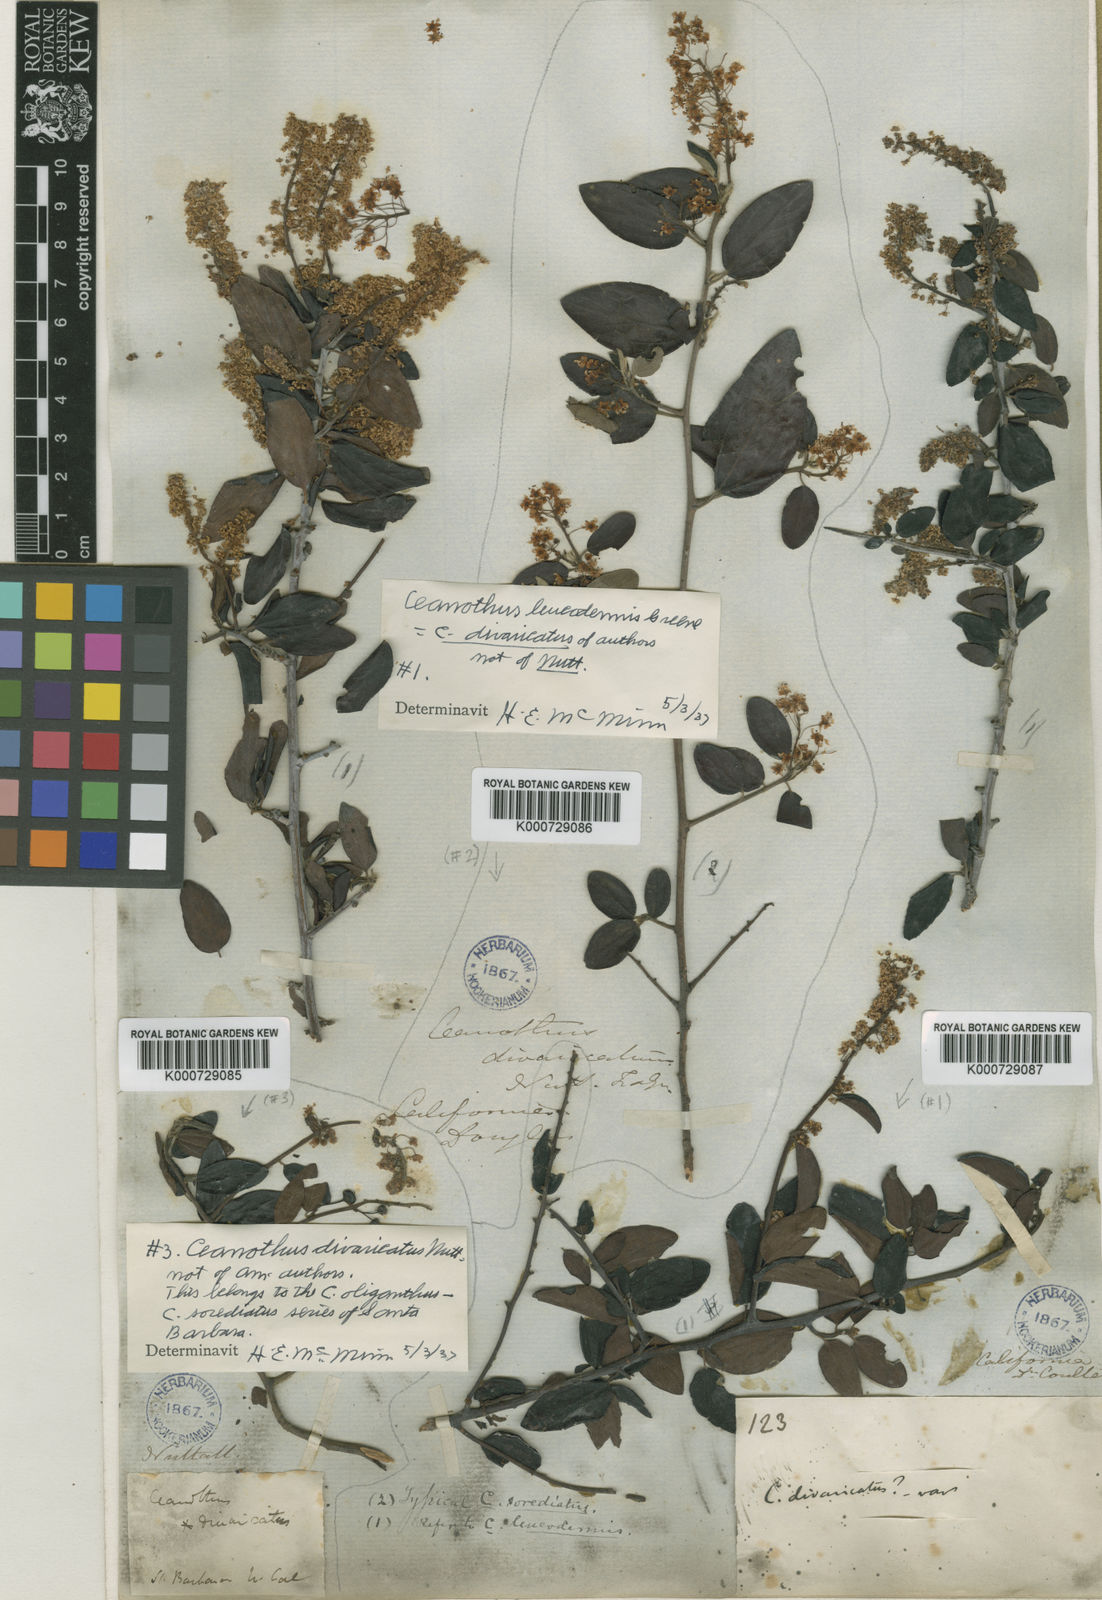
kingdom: Plantae
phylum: Tracheophyta
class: Magnoliopsida
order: Rosales
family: Rhamnaceae
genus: Ceanothus
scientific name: Ceanothus oliganthus
